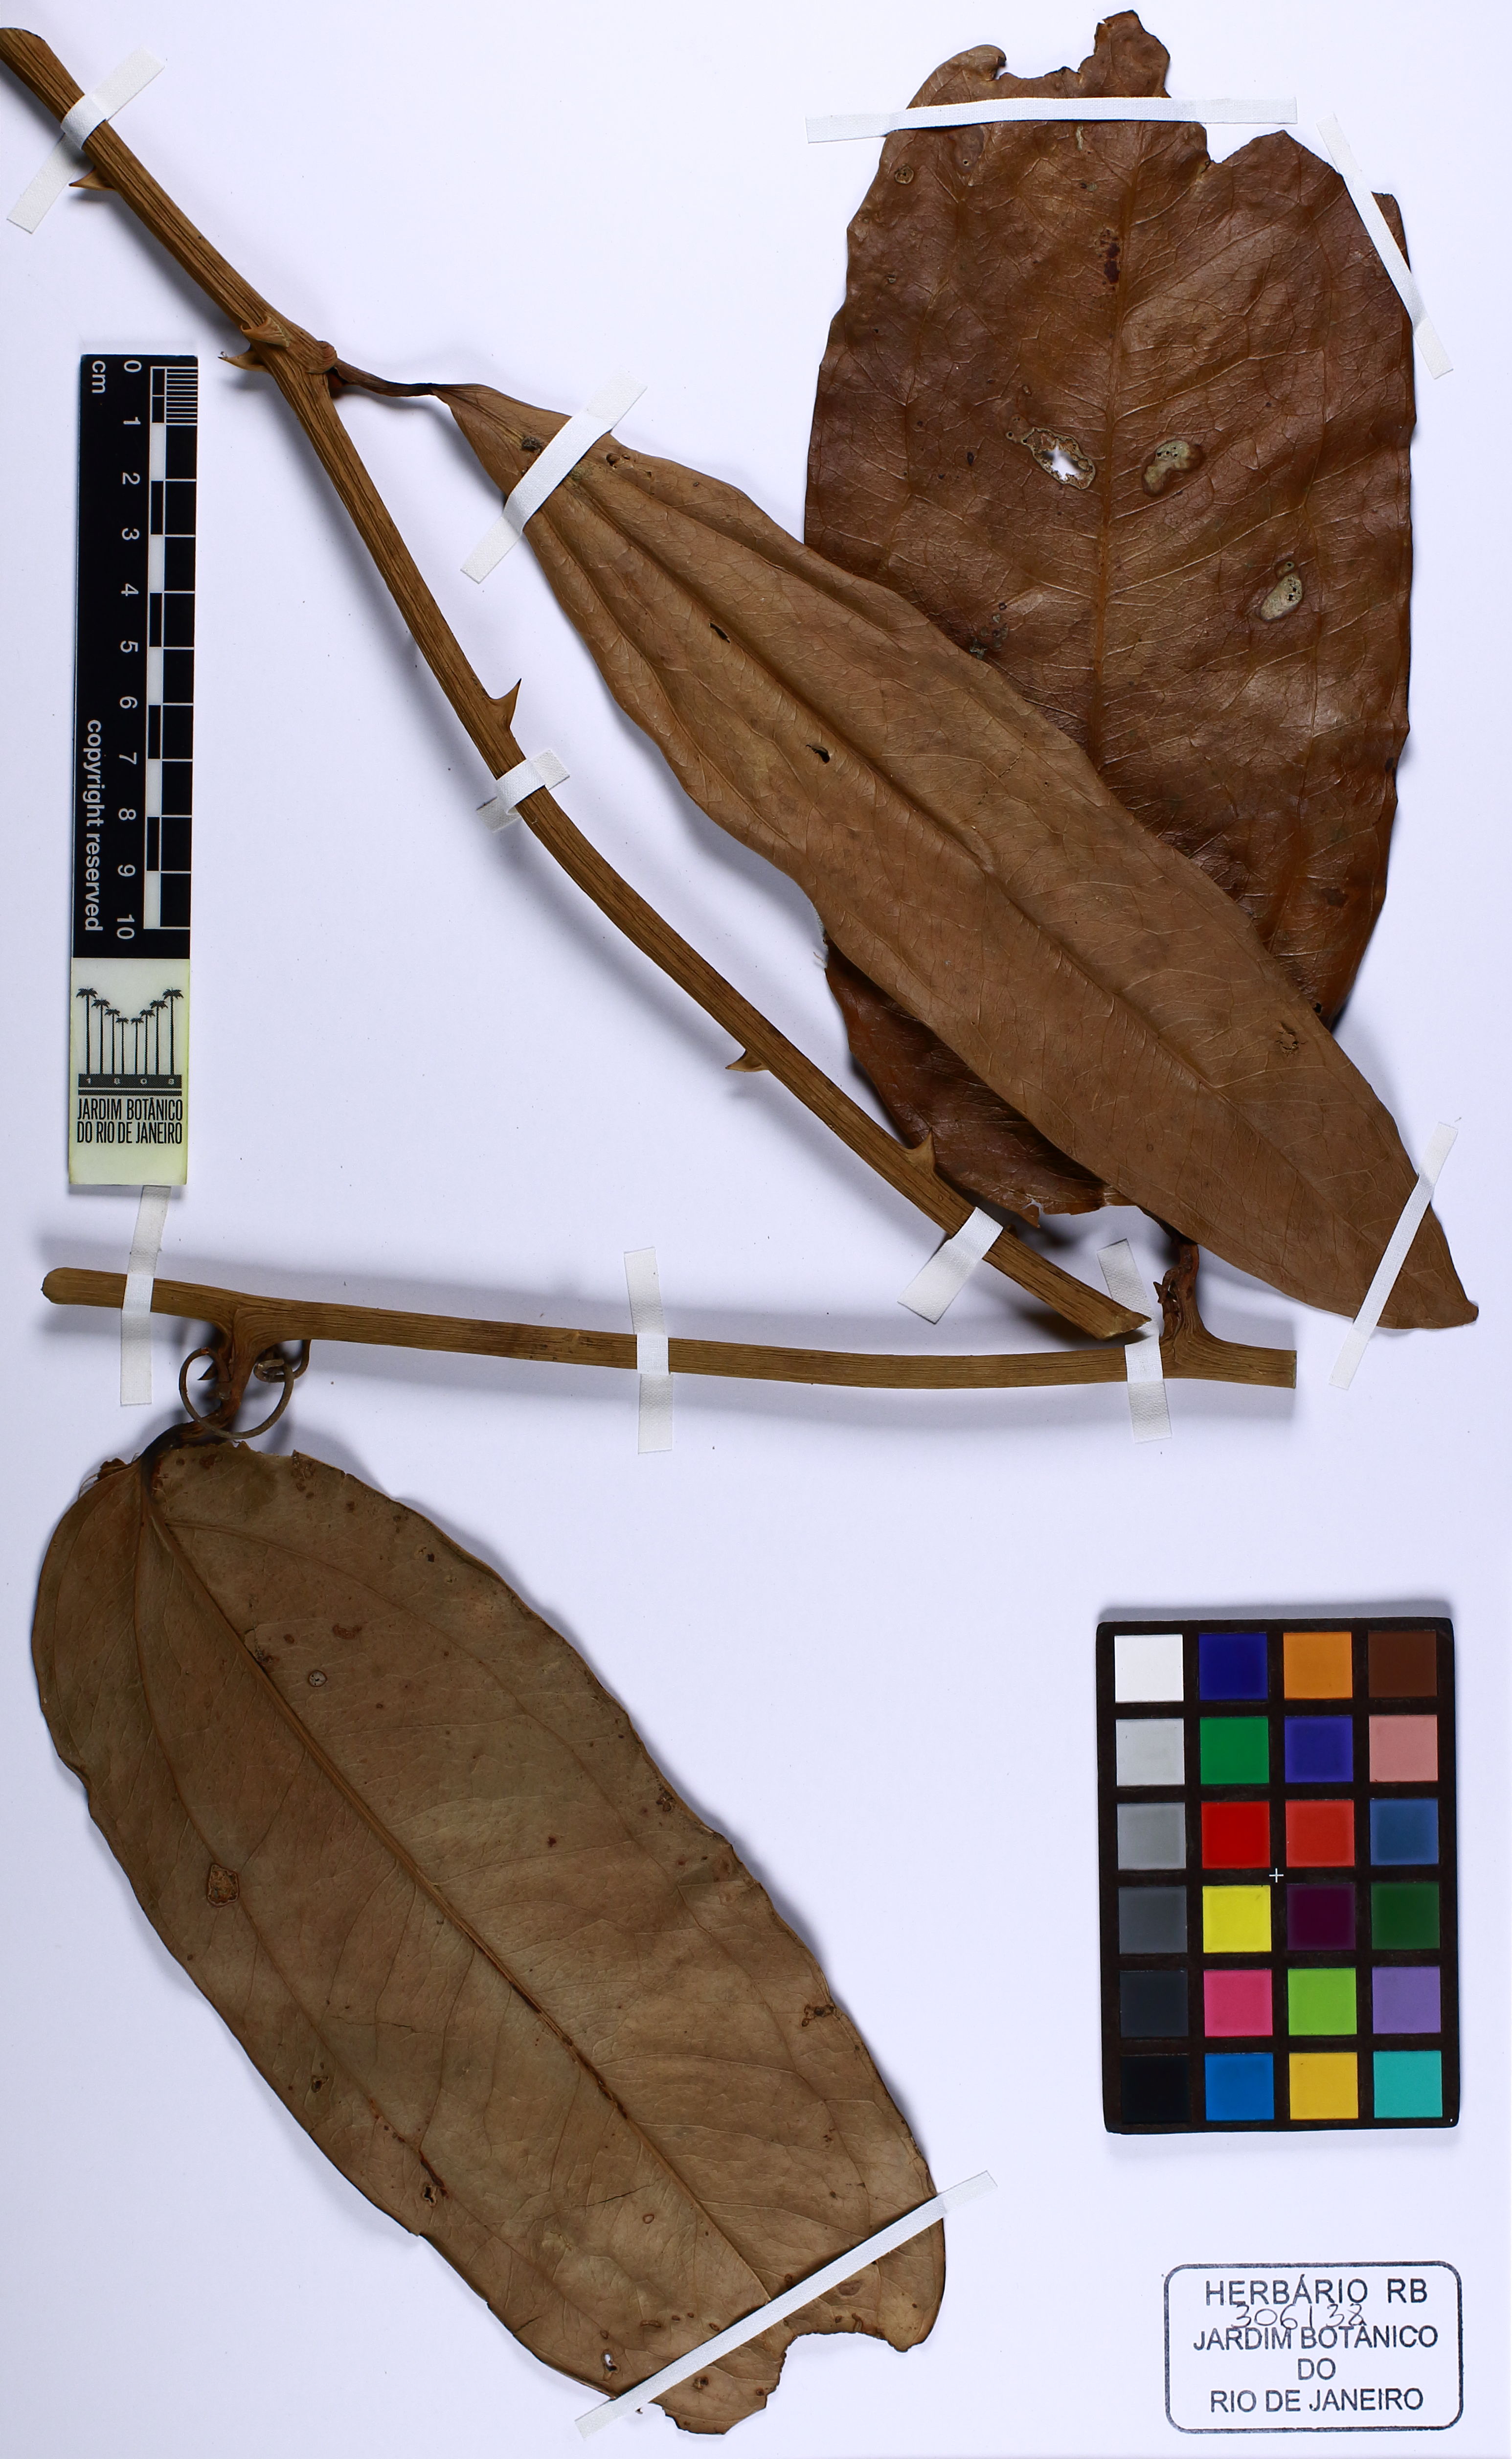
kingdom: Plantae
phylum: Tracheophyta
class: Liliopsida
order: Liliales
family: Smilacaceae
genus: Smilax
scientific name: Smilax remotinervis
